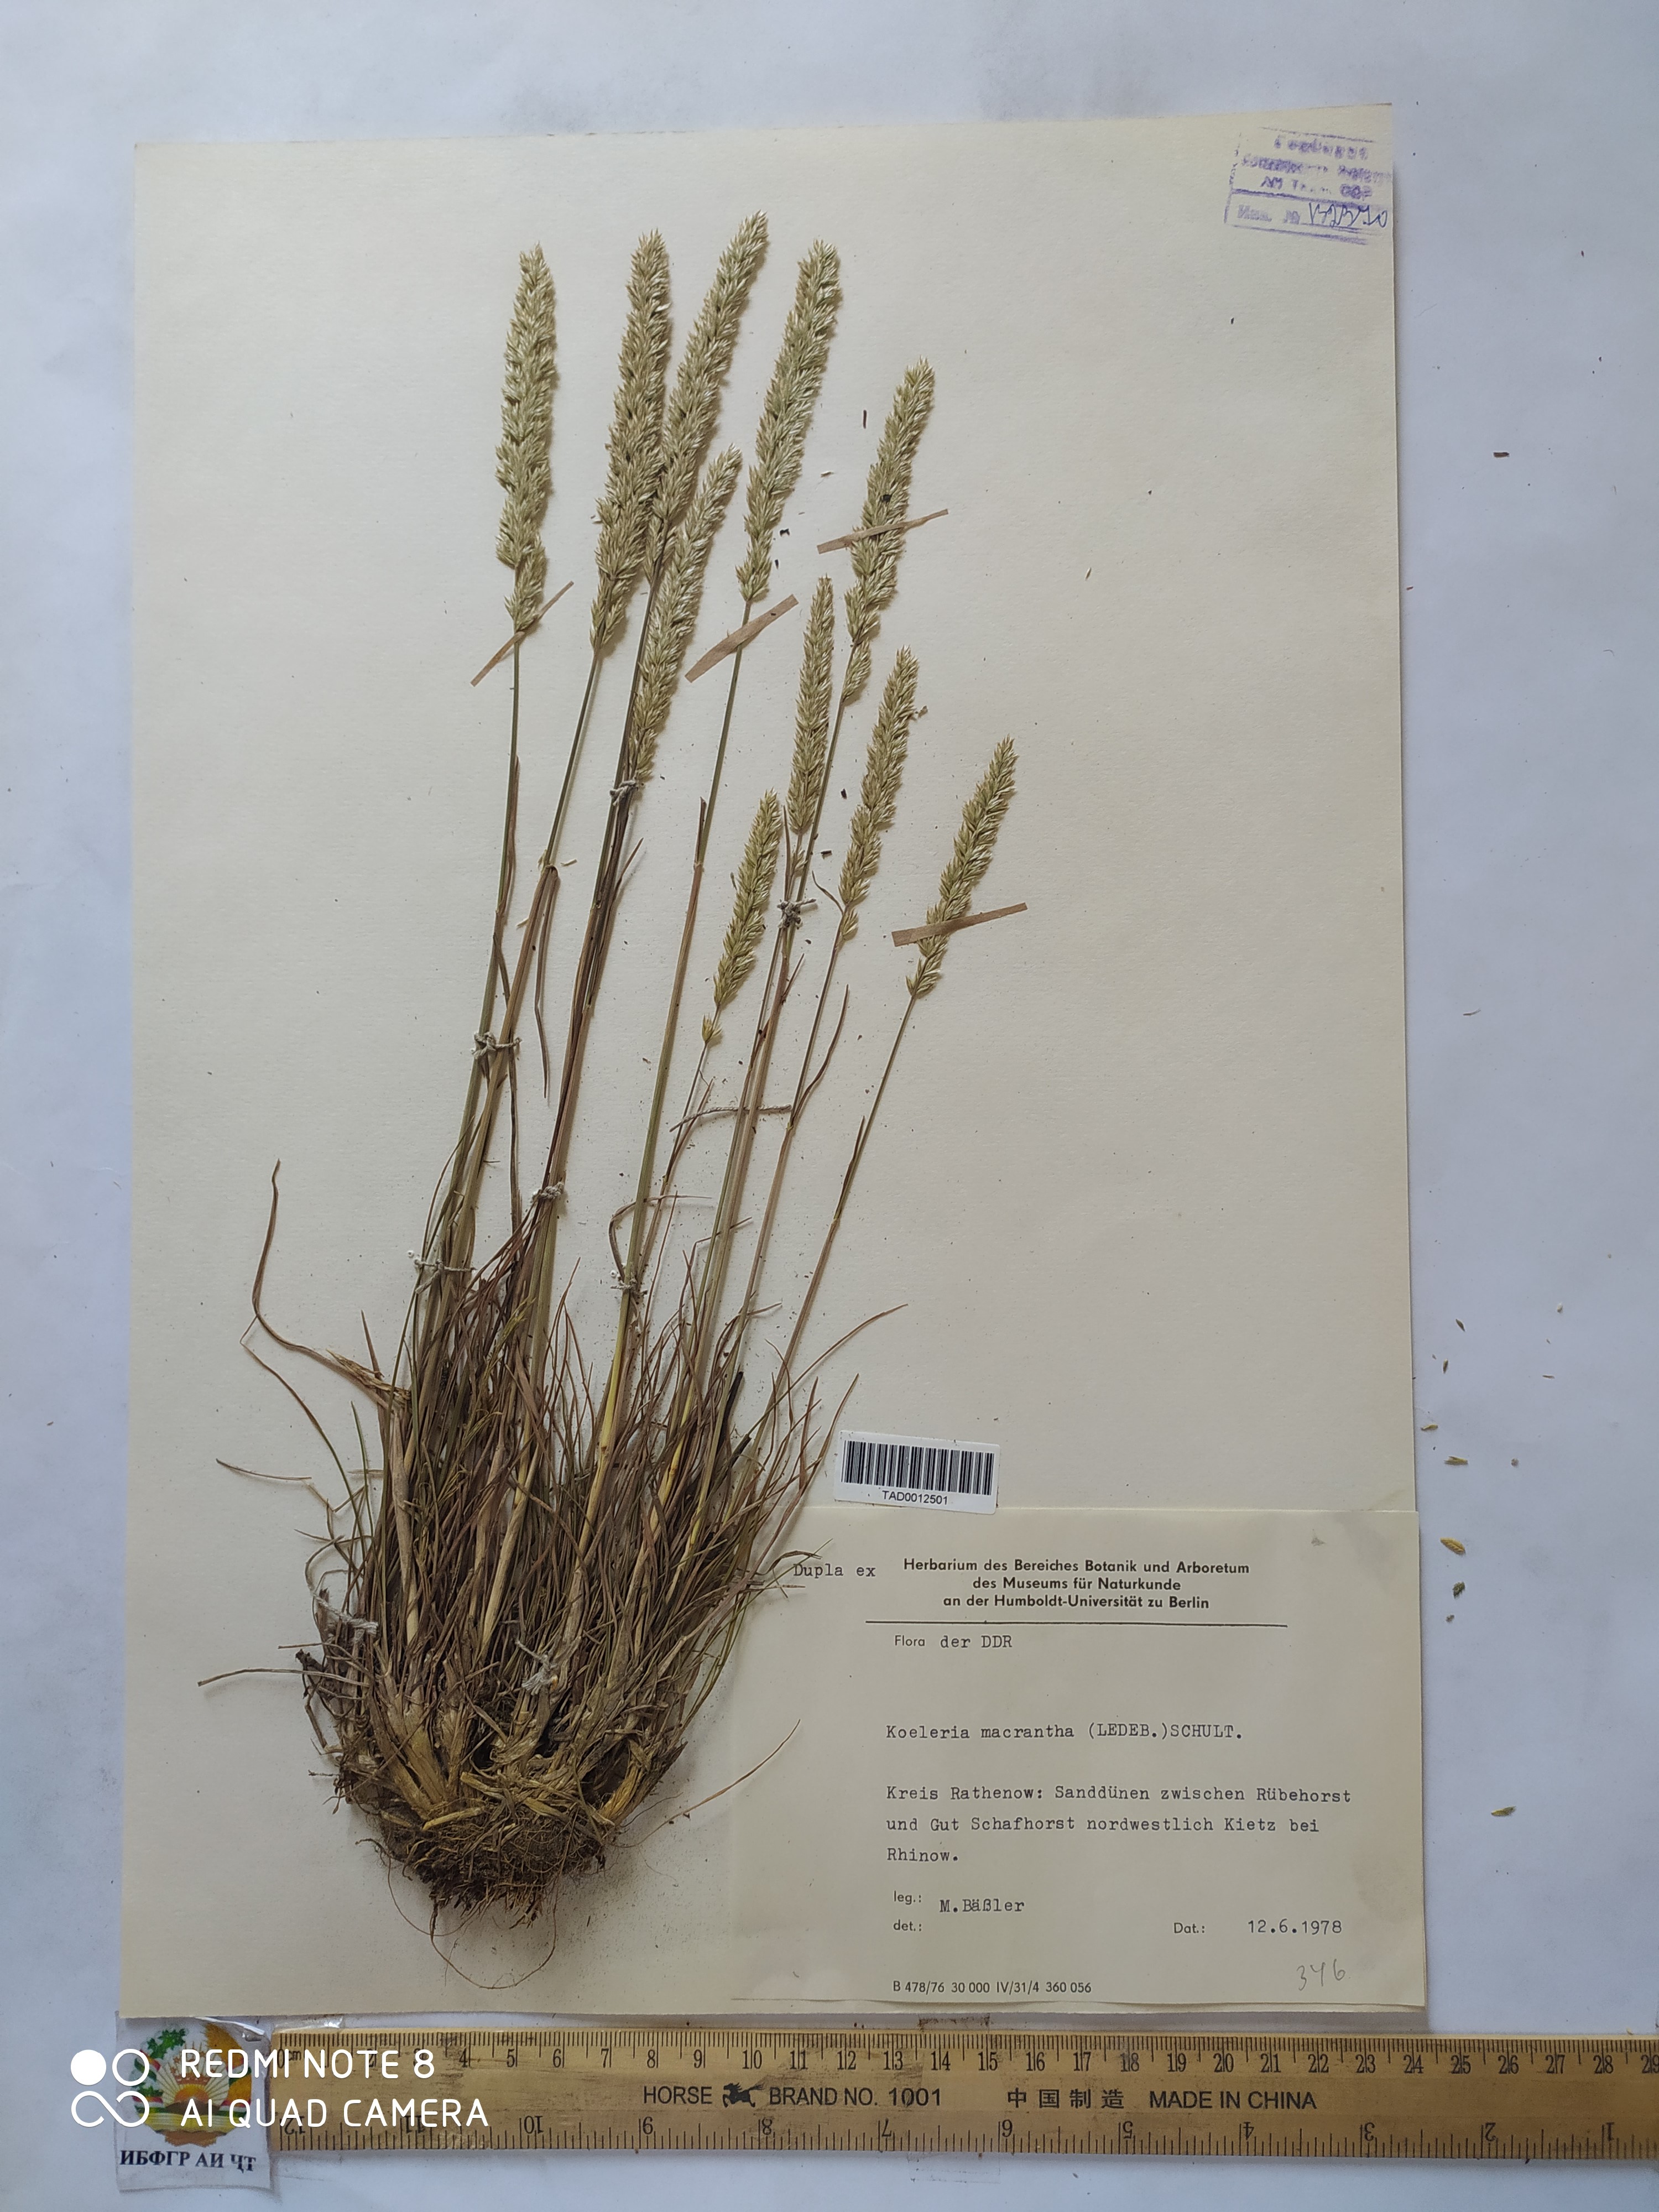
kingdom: Plantae
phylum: Tracheophyta
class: Liliopsida
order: Poales
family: Poaceae
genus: Koeleria
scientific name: Koeleria macrantha
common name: Crested hair-grass
